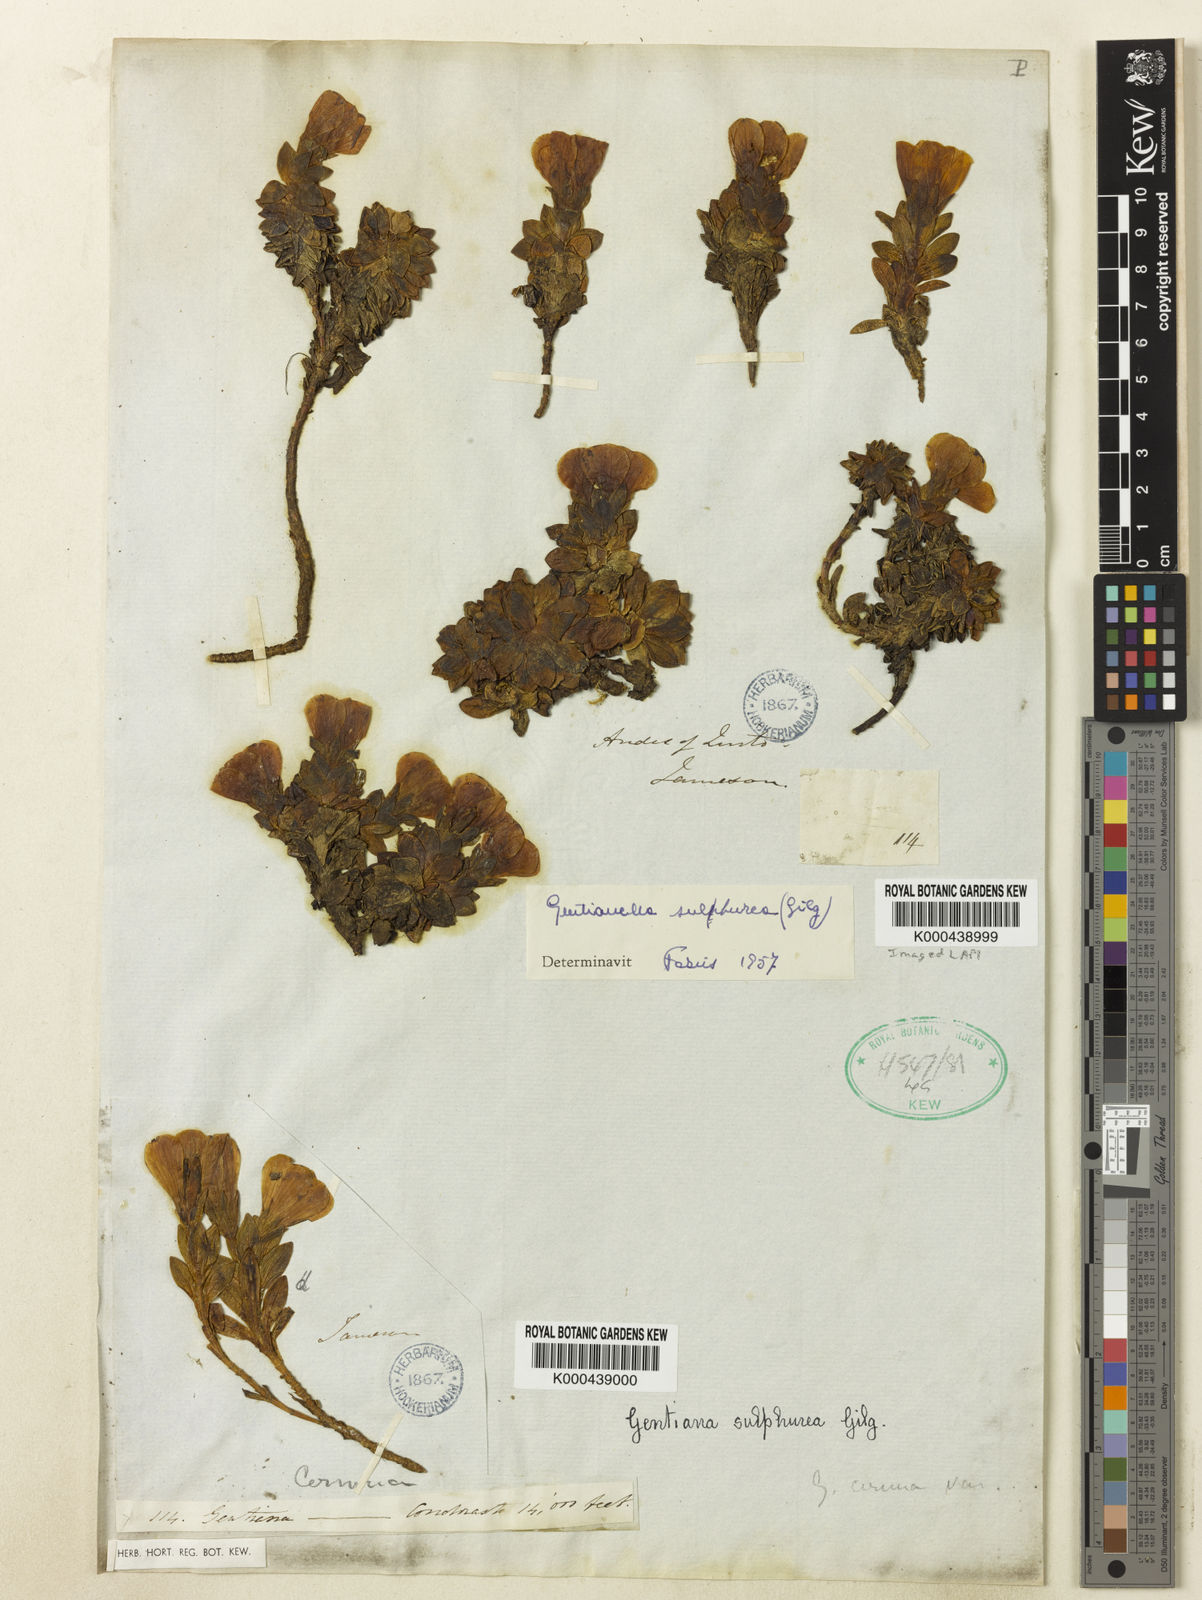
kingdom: Plantae
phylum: Tracheophyta
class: Magnoliopsida
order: Gentianales
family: Gentianaceae
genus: Gentianella
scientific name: Gentianella sulphurea
